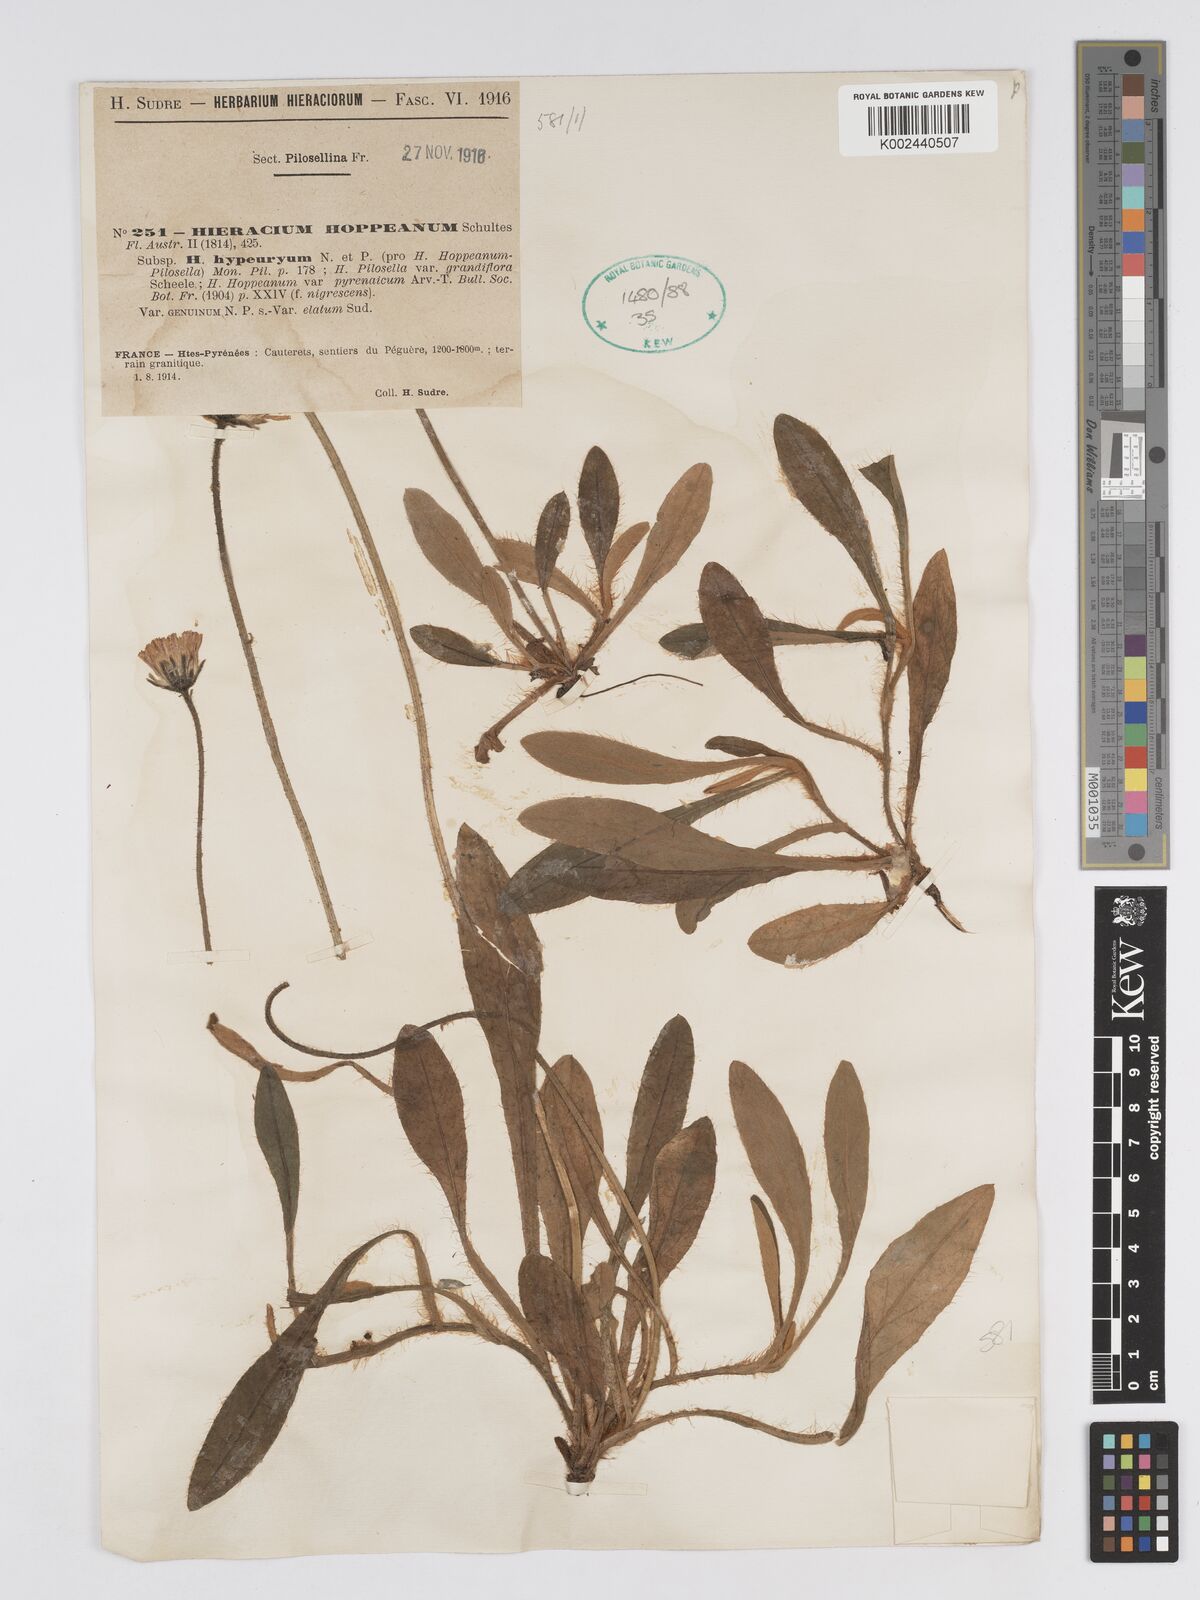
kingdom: Plantae
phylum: Tracheophyta
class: Magnoliopsida
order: Asterales
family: Asteraceae
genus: Pilosella
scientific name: Pilosella hypeurya
